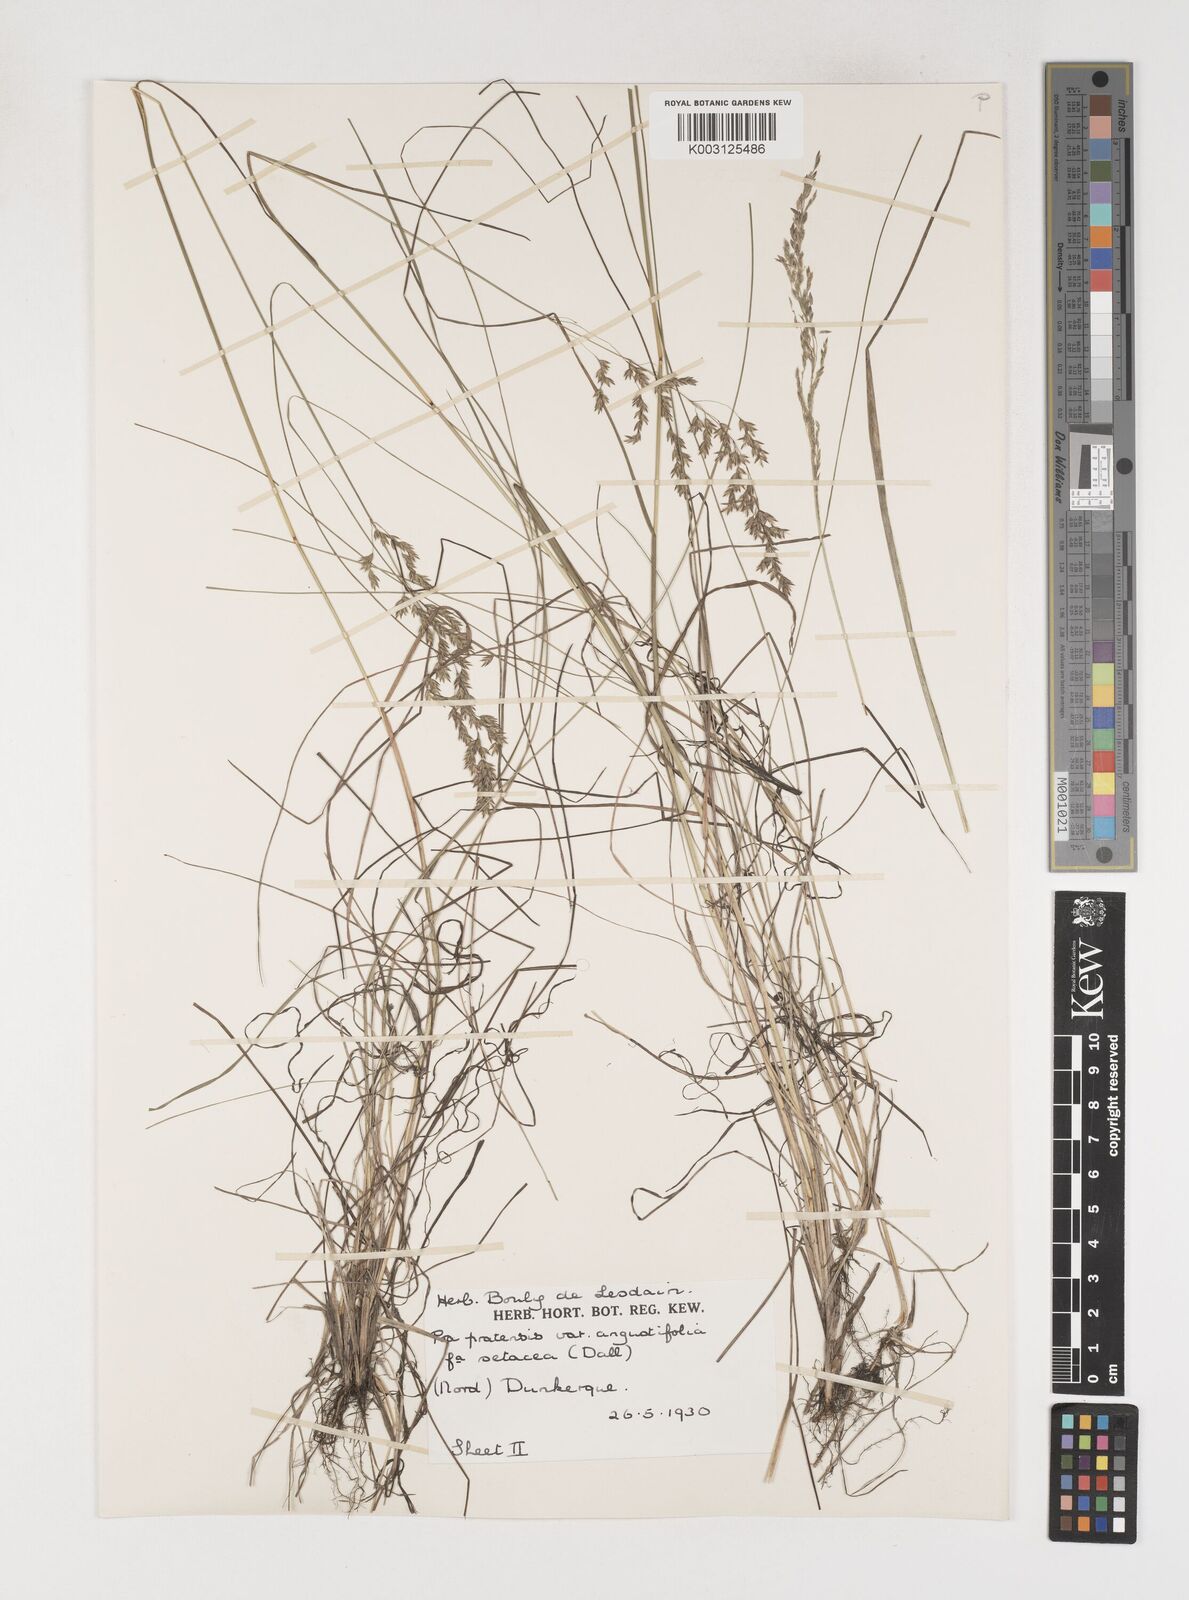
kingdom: Plantae
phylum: Tracheophyta
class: Liliopsida
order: Poales
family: Poaceae
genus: Poa
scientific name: Poa angustifolia
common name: Narrow-leaved meadow-grass
